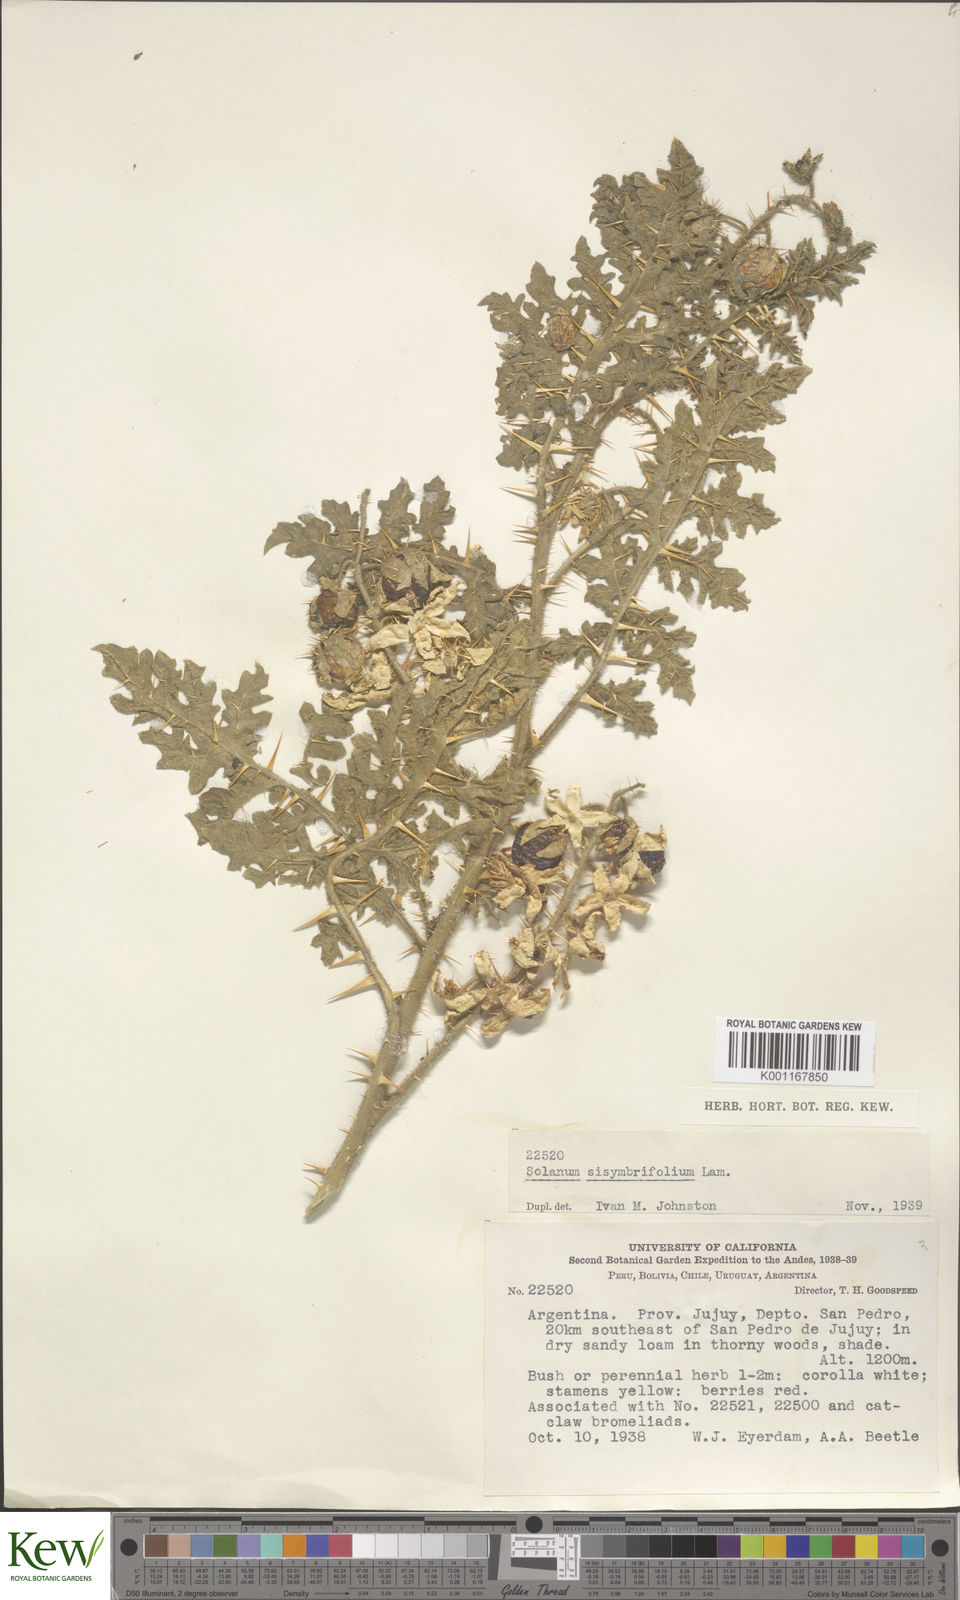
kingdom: Plantae
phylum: Tracheophyta
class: Magnoliopsida
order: Solanales
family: Solanaceae
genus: Solanum
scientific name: Solanum sisymbriifolium
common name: Red buffalo-bur
